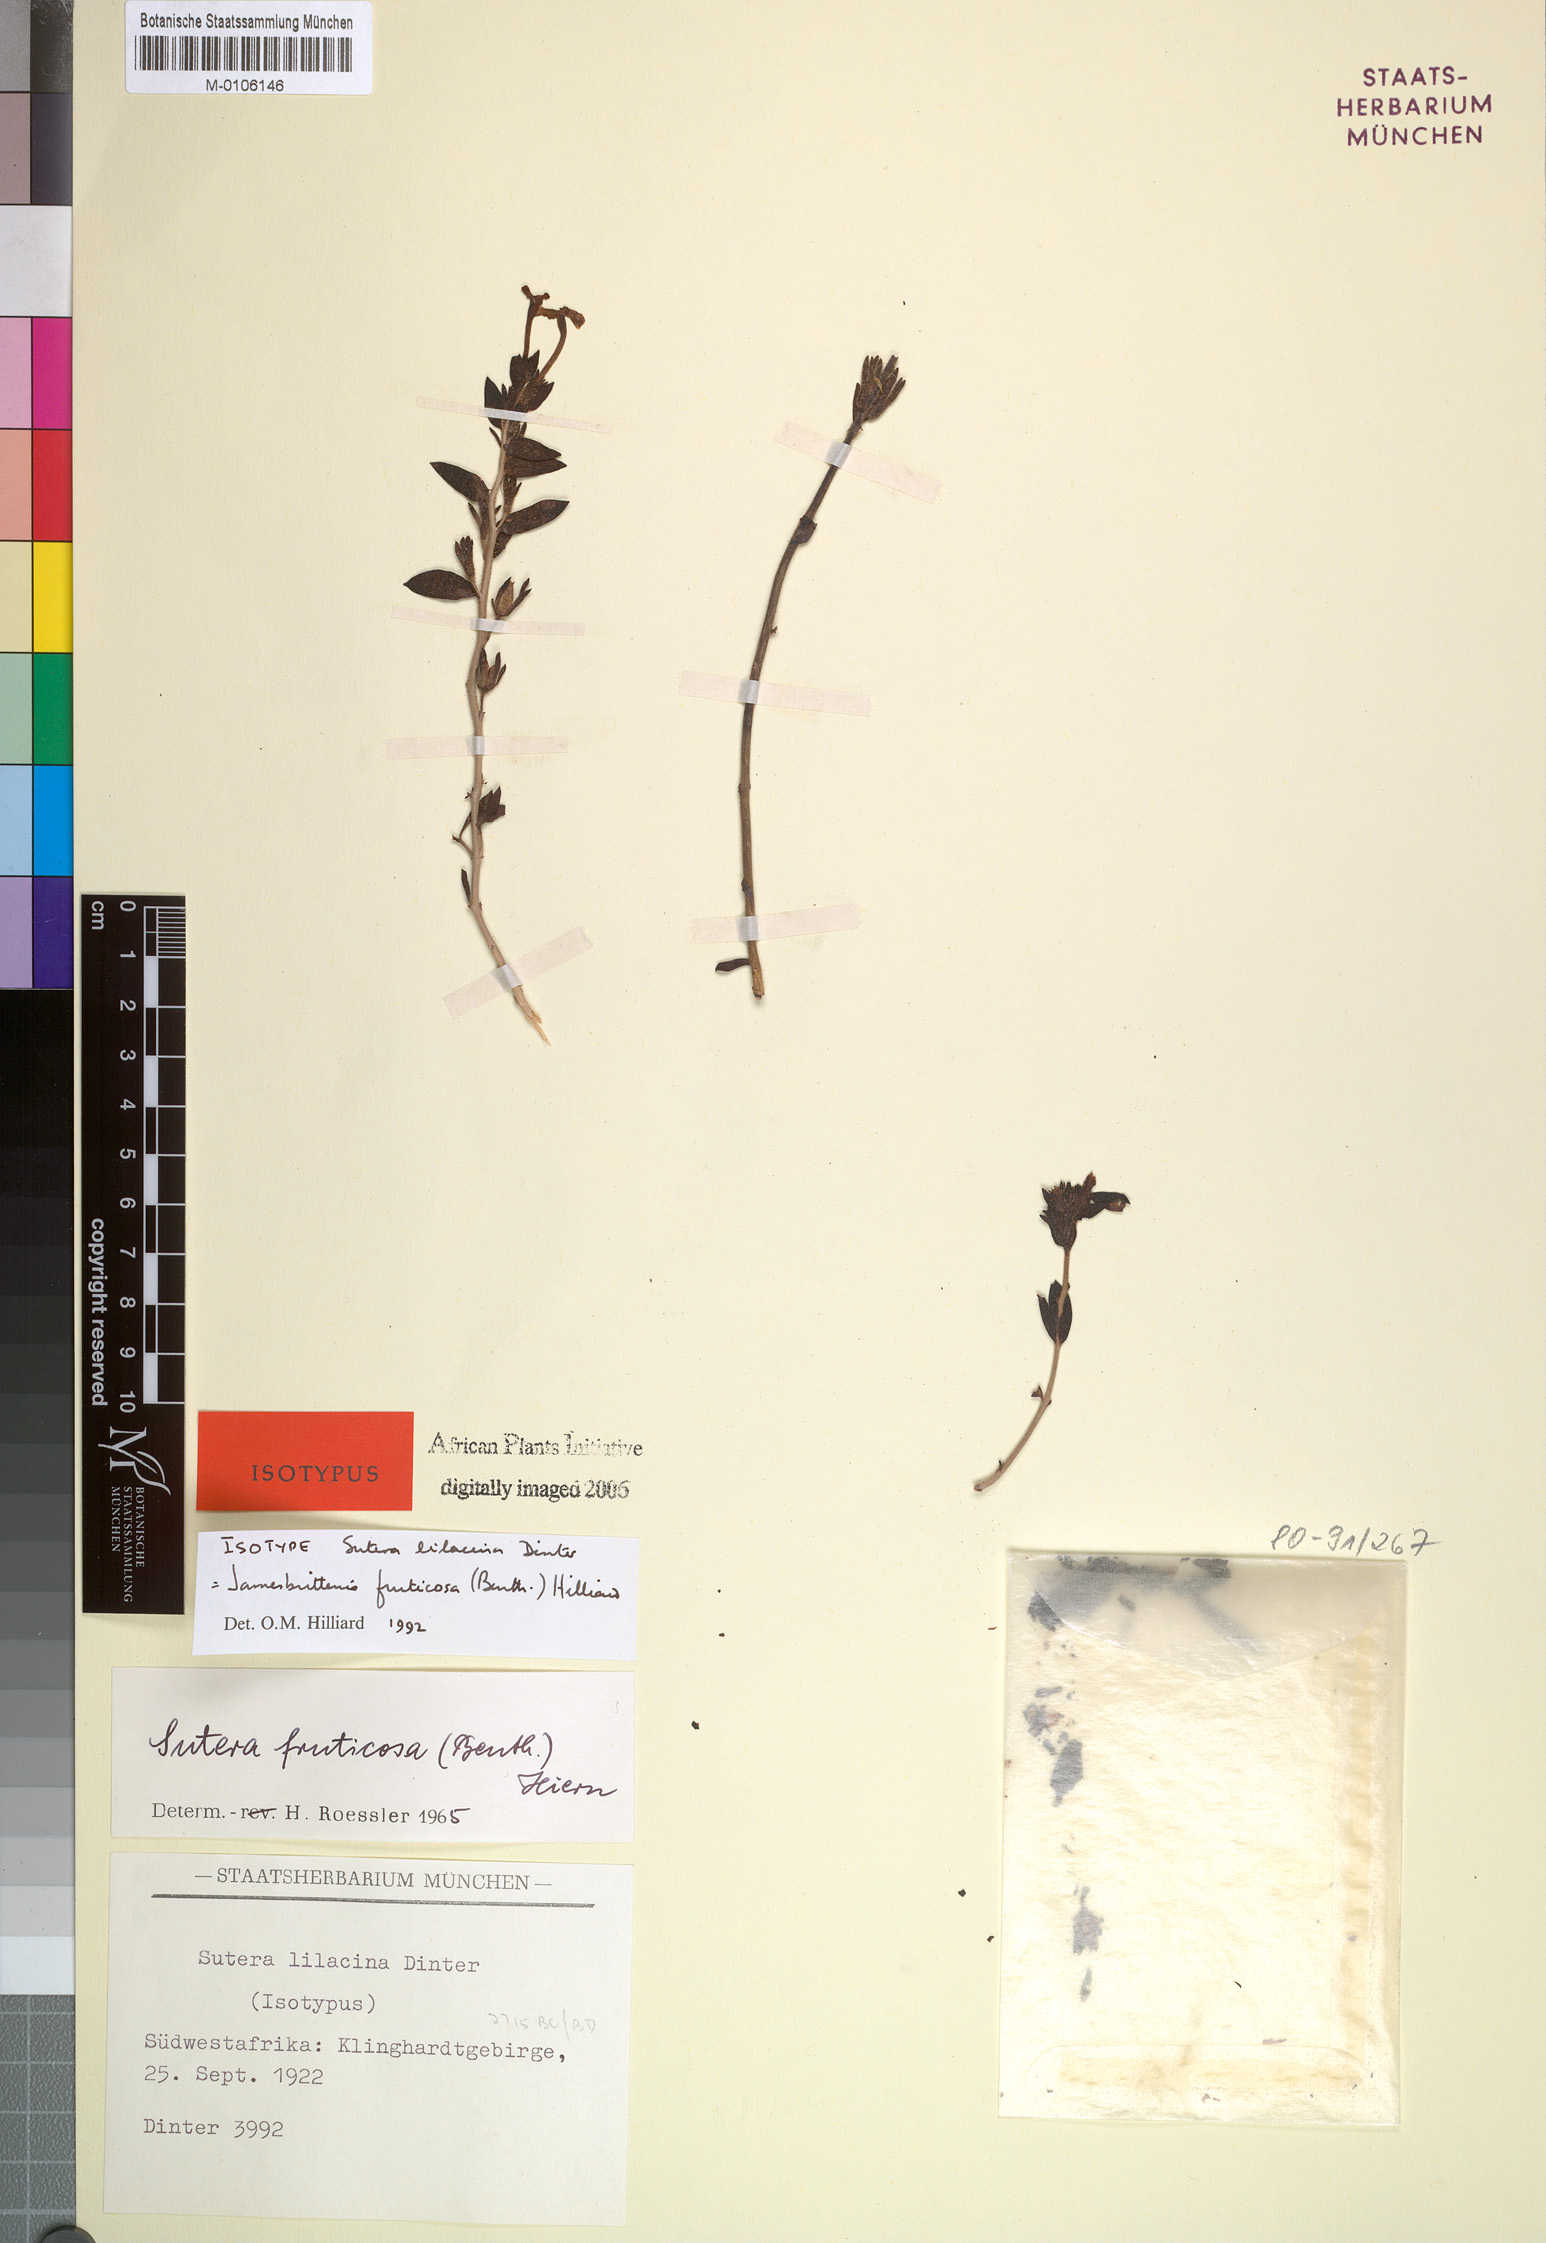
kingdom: Plantae
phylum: Tracheophyta
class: Magnoliopsida
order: Lamiales
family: Scrophulariaceae
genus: Jamesbrittenia
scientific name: Jamesbrittenia fruticosa
